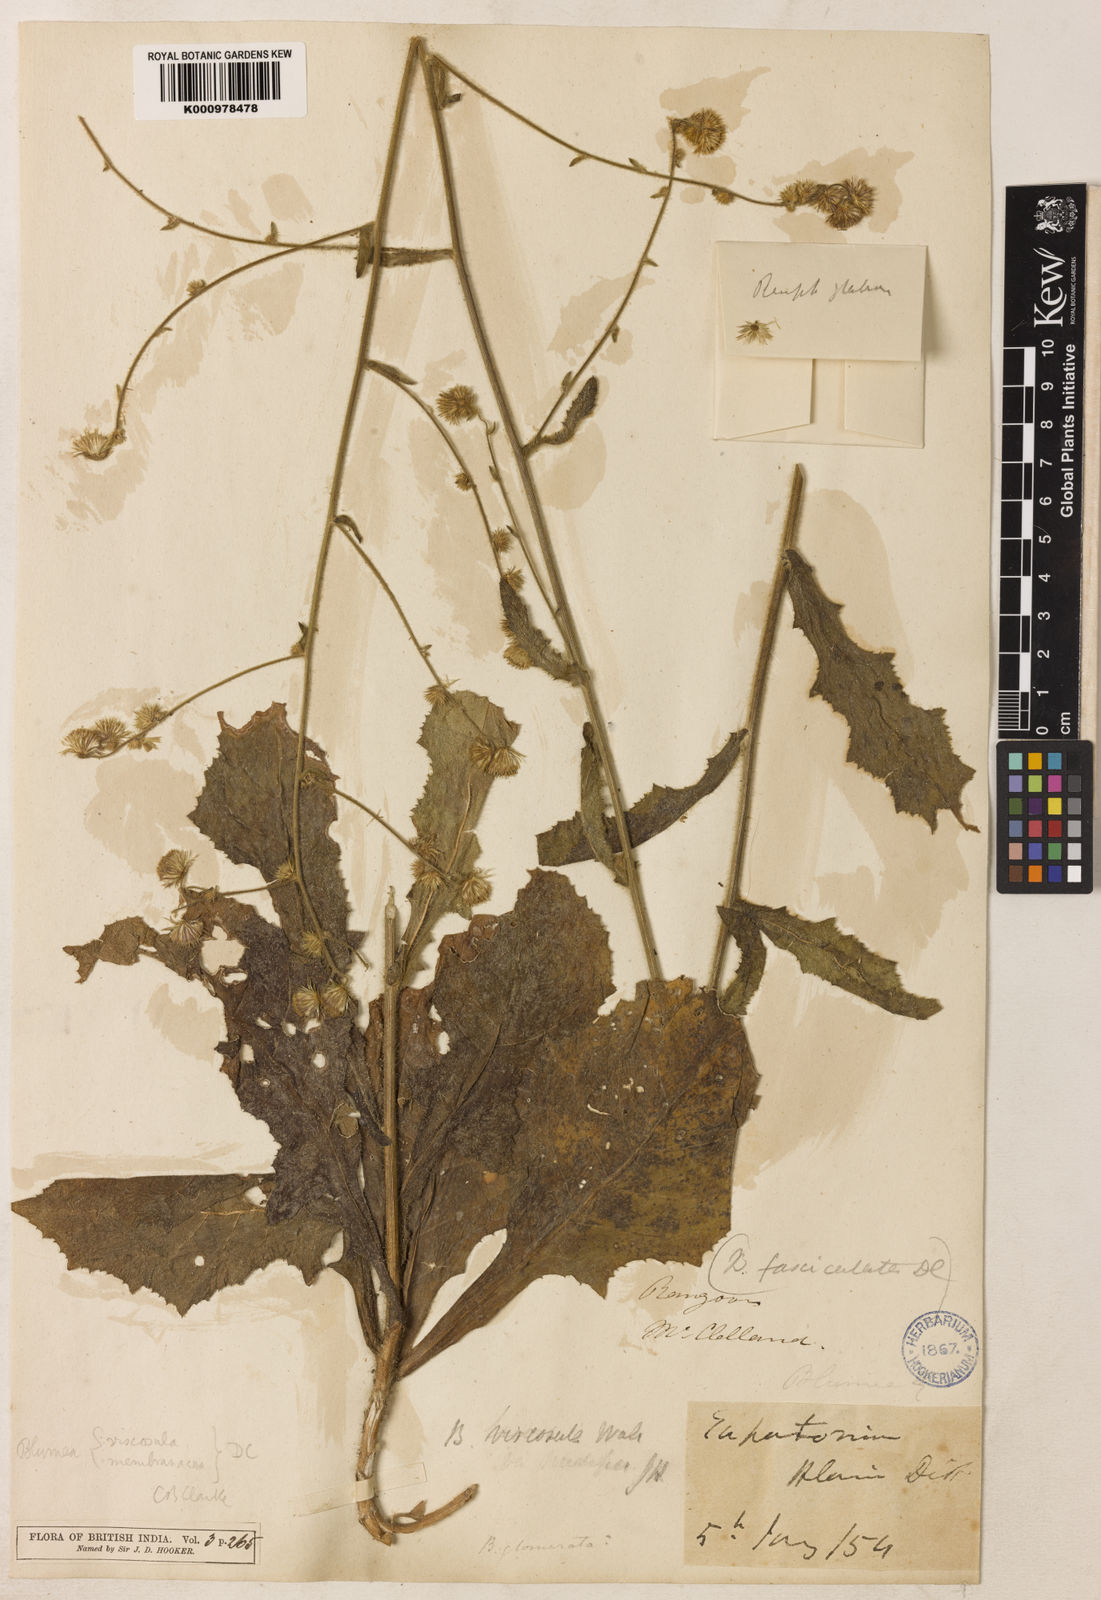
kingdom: Plantae
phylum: Tracheophyta
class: Magnoliopsida
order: Asterales
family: Asteraceae
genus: Blumea
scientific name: Blumea
